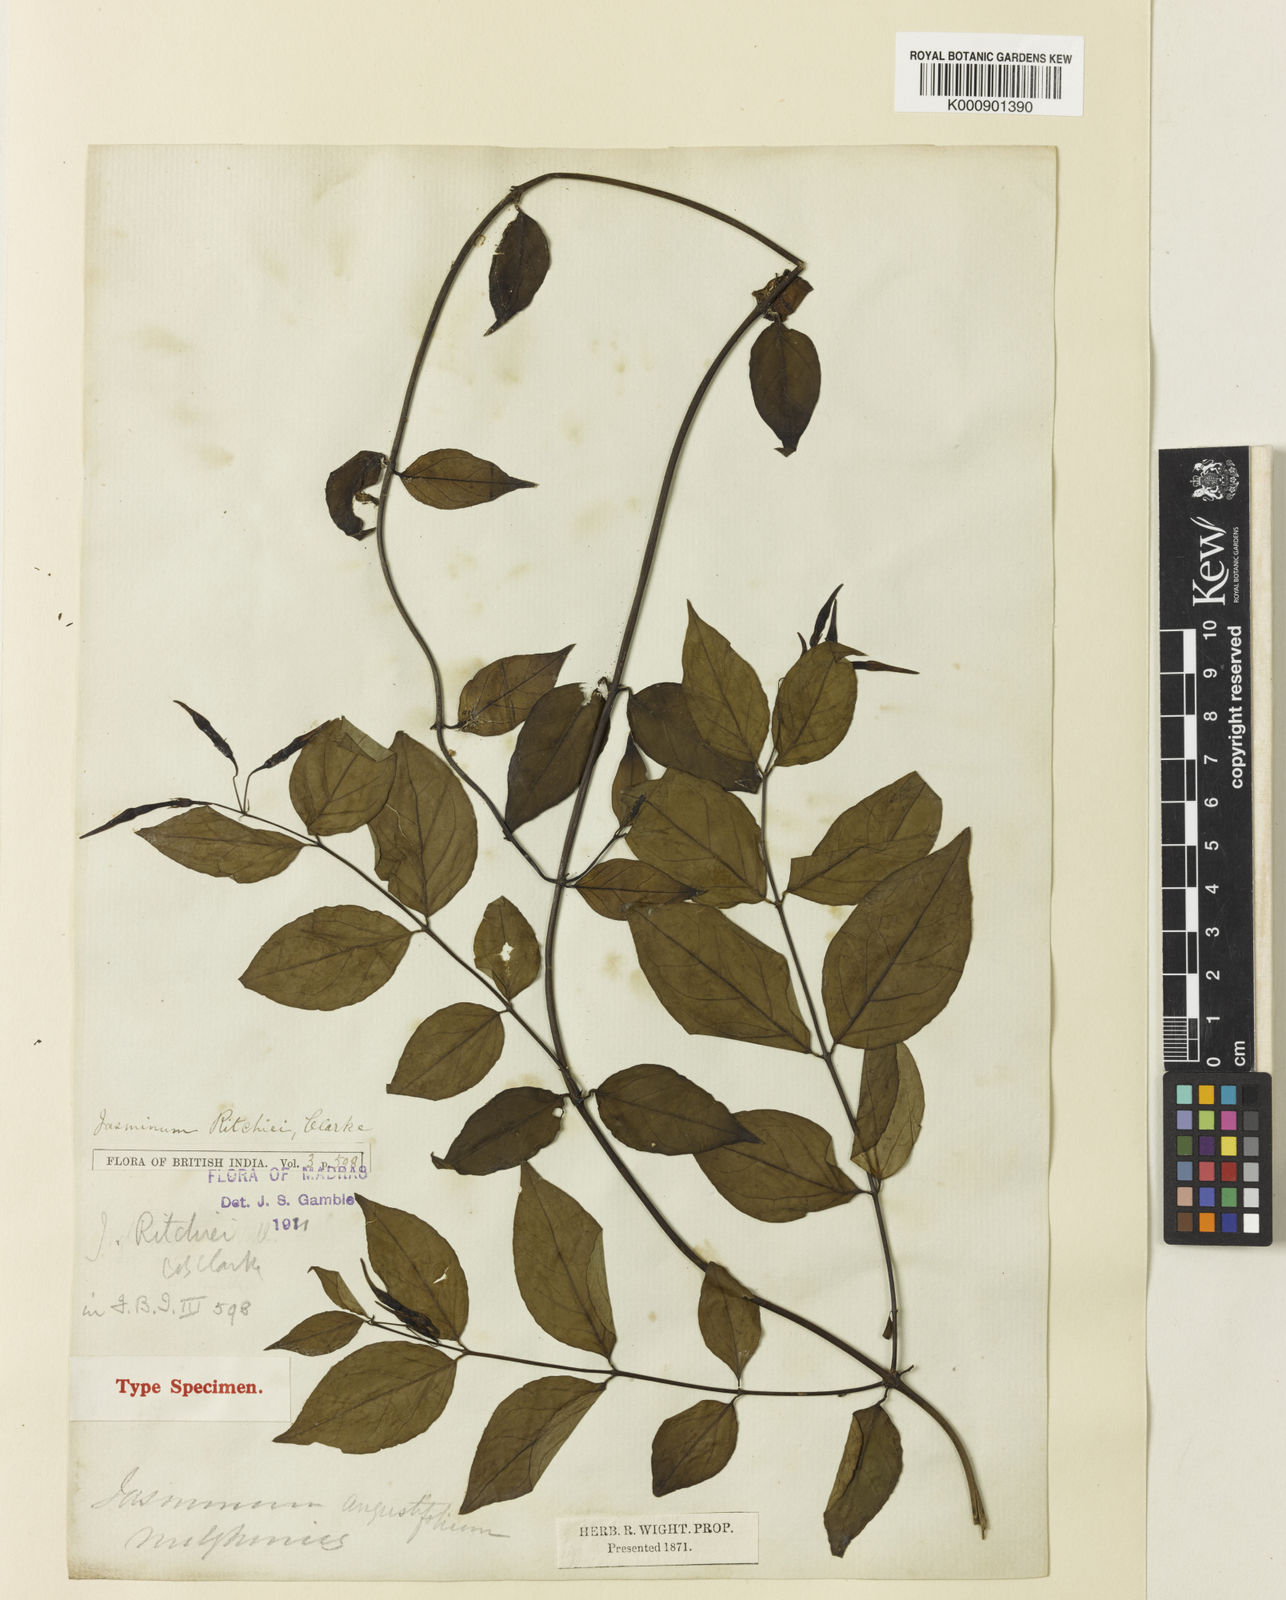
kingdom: Plantae
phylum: Tracheophyta
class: Magnoliopsida
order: Lamiales
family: Oleaceae
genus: Jasminum
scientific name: Jasminum ritchiei
